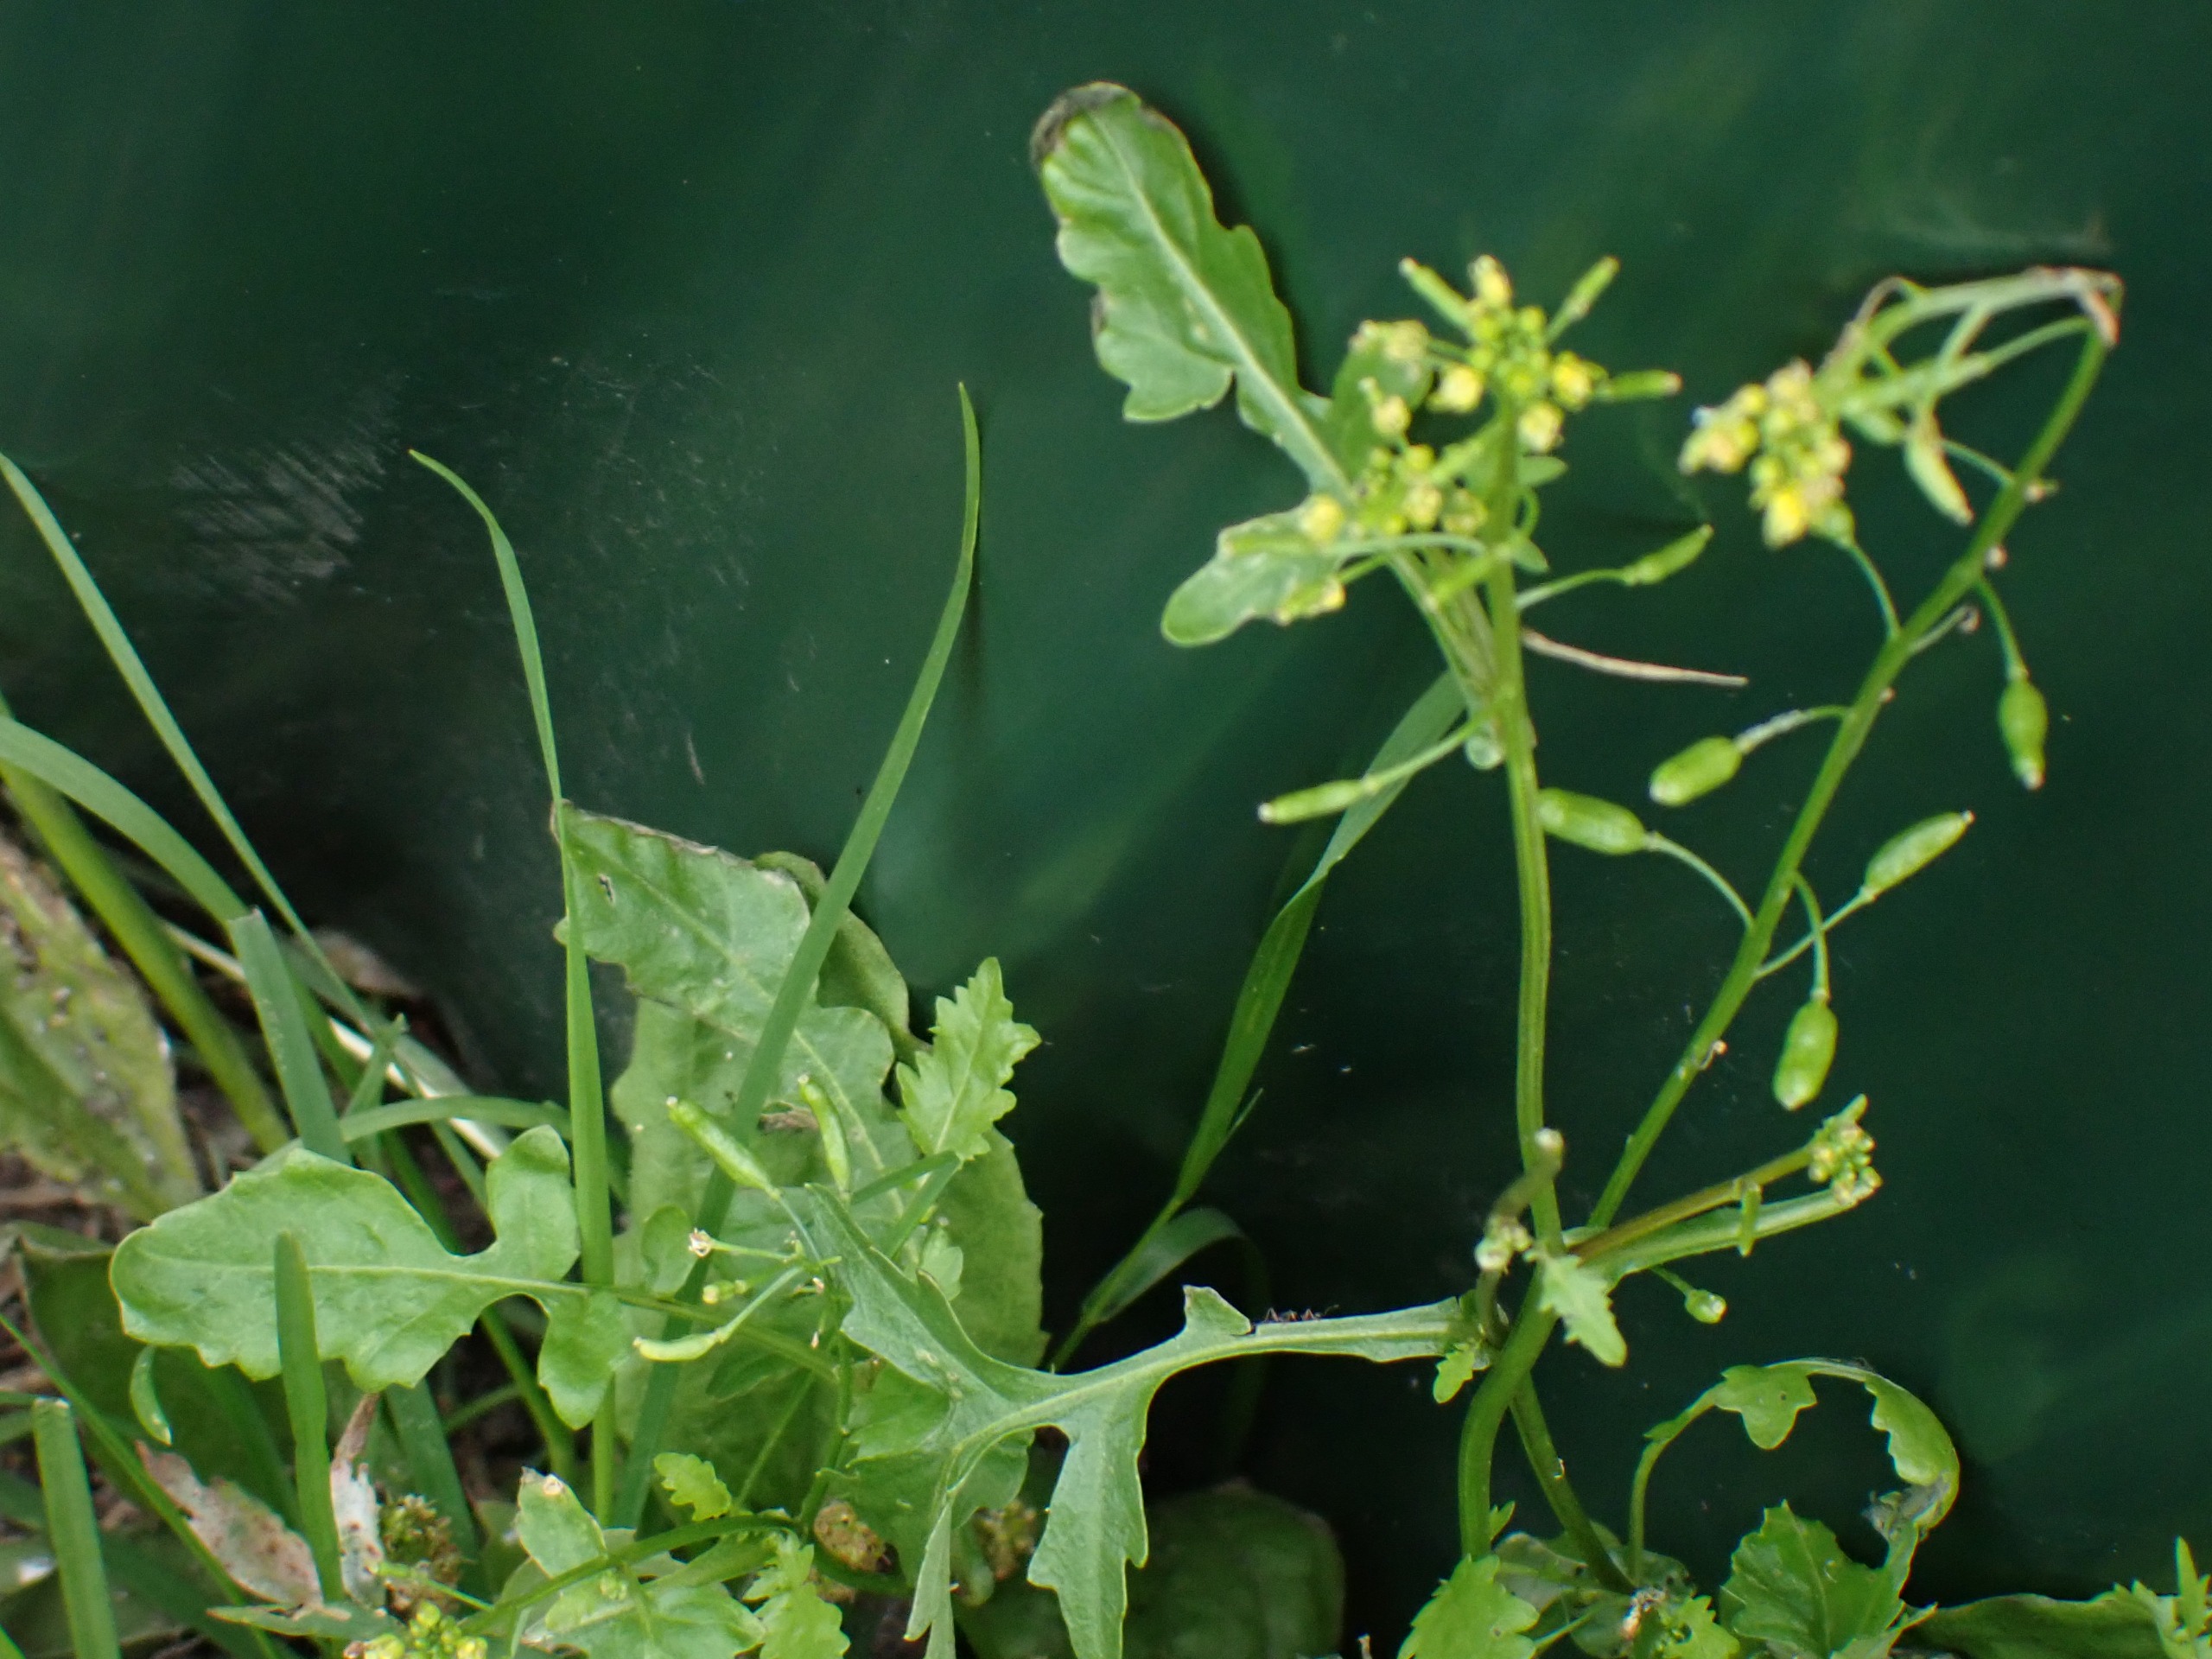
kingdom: Plantae
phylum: Tracheophyta
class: Magnoliopsida
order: Brassicales
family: Brassicaceae
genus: Rorippa
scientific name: Rorippa palustris
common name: Kær-guldkarse
